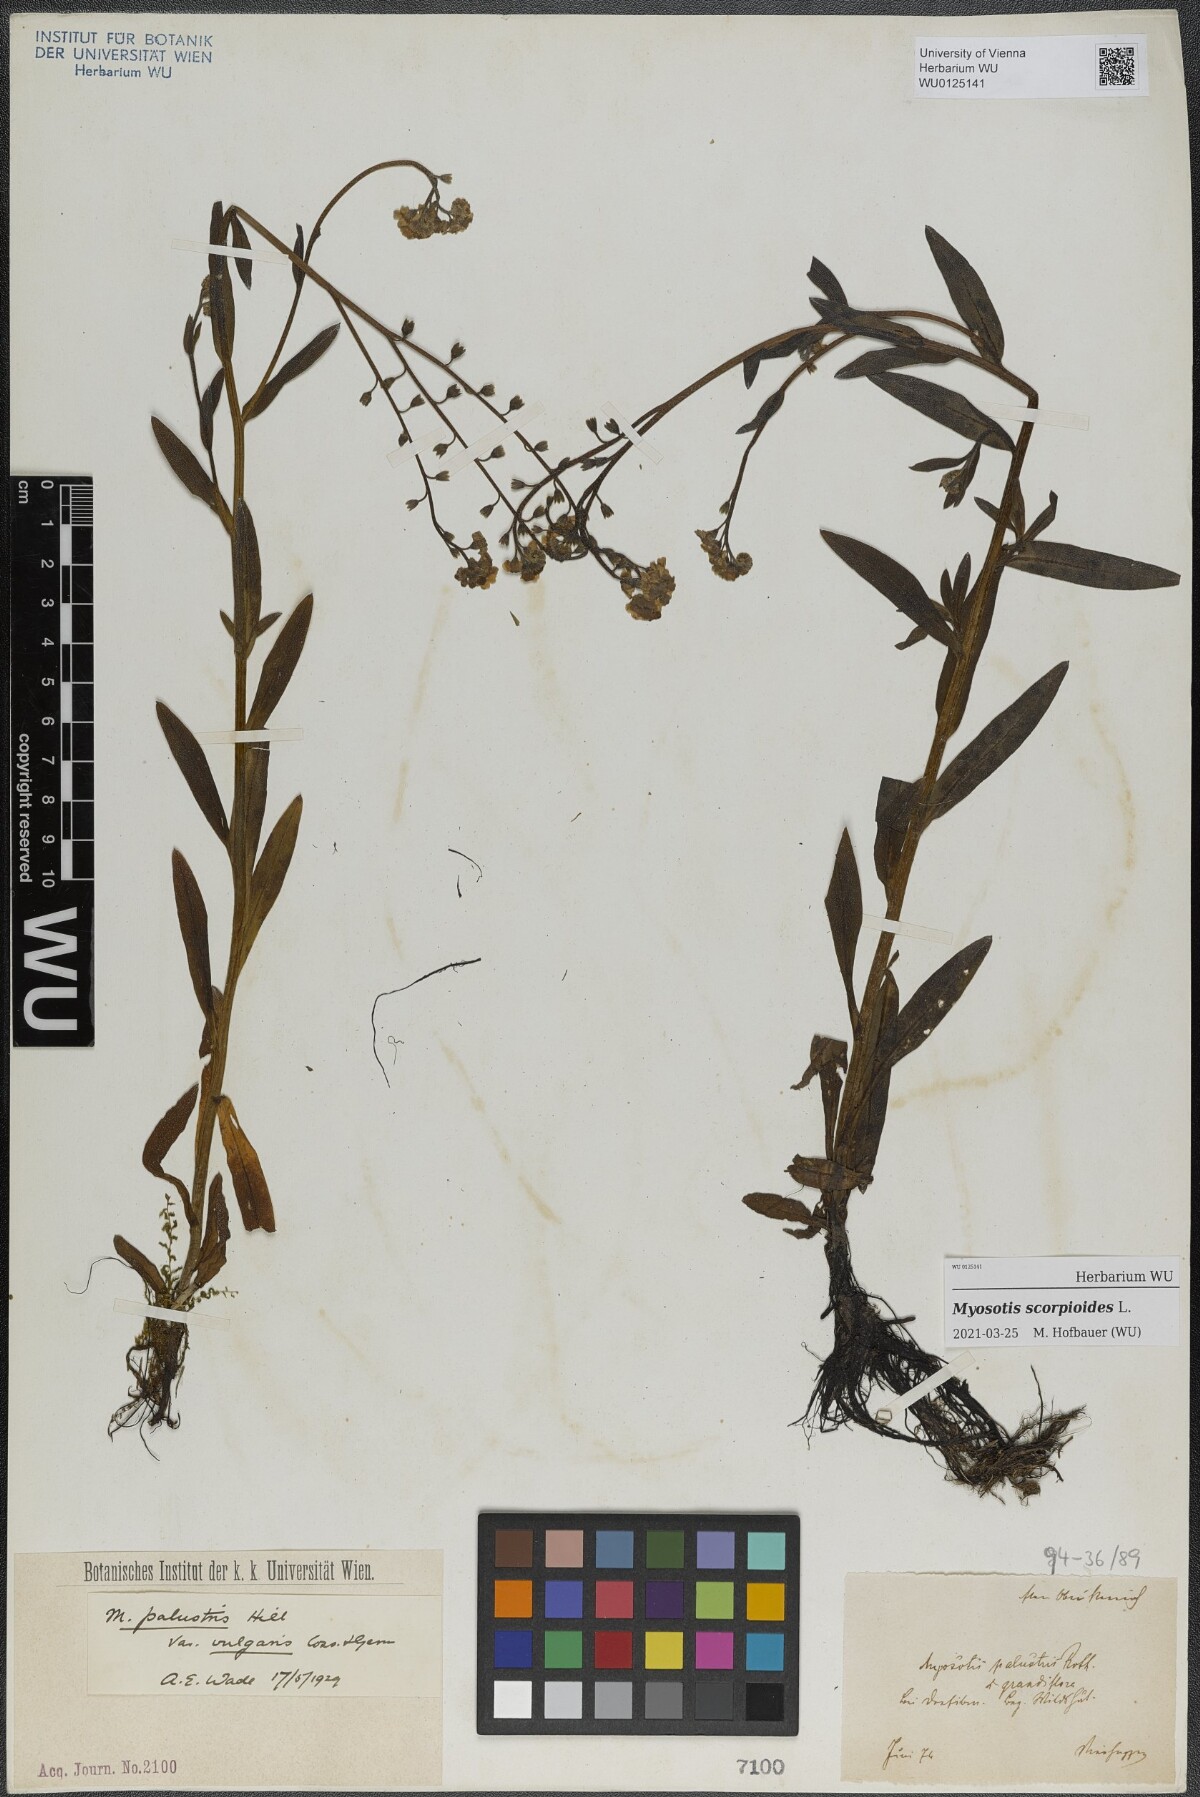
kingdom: Plantae
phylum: Tracheophyta
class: Magnoliopsida
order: Boraginales
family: Boraginaceae
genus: Myosotis
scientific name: Myosotis scorpioides
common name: Water forget-me-not
